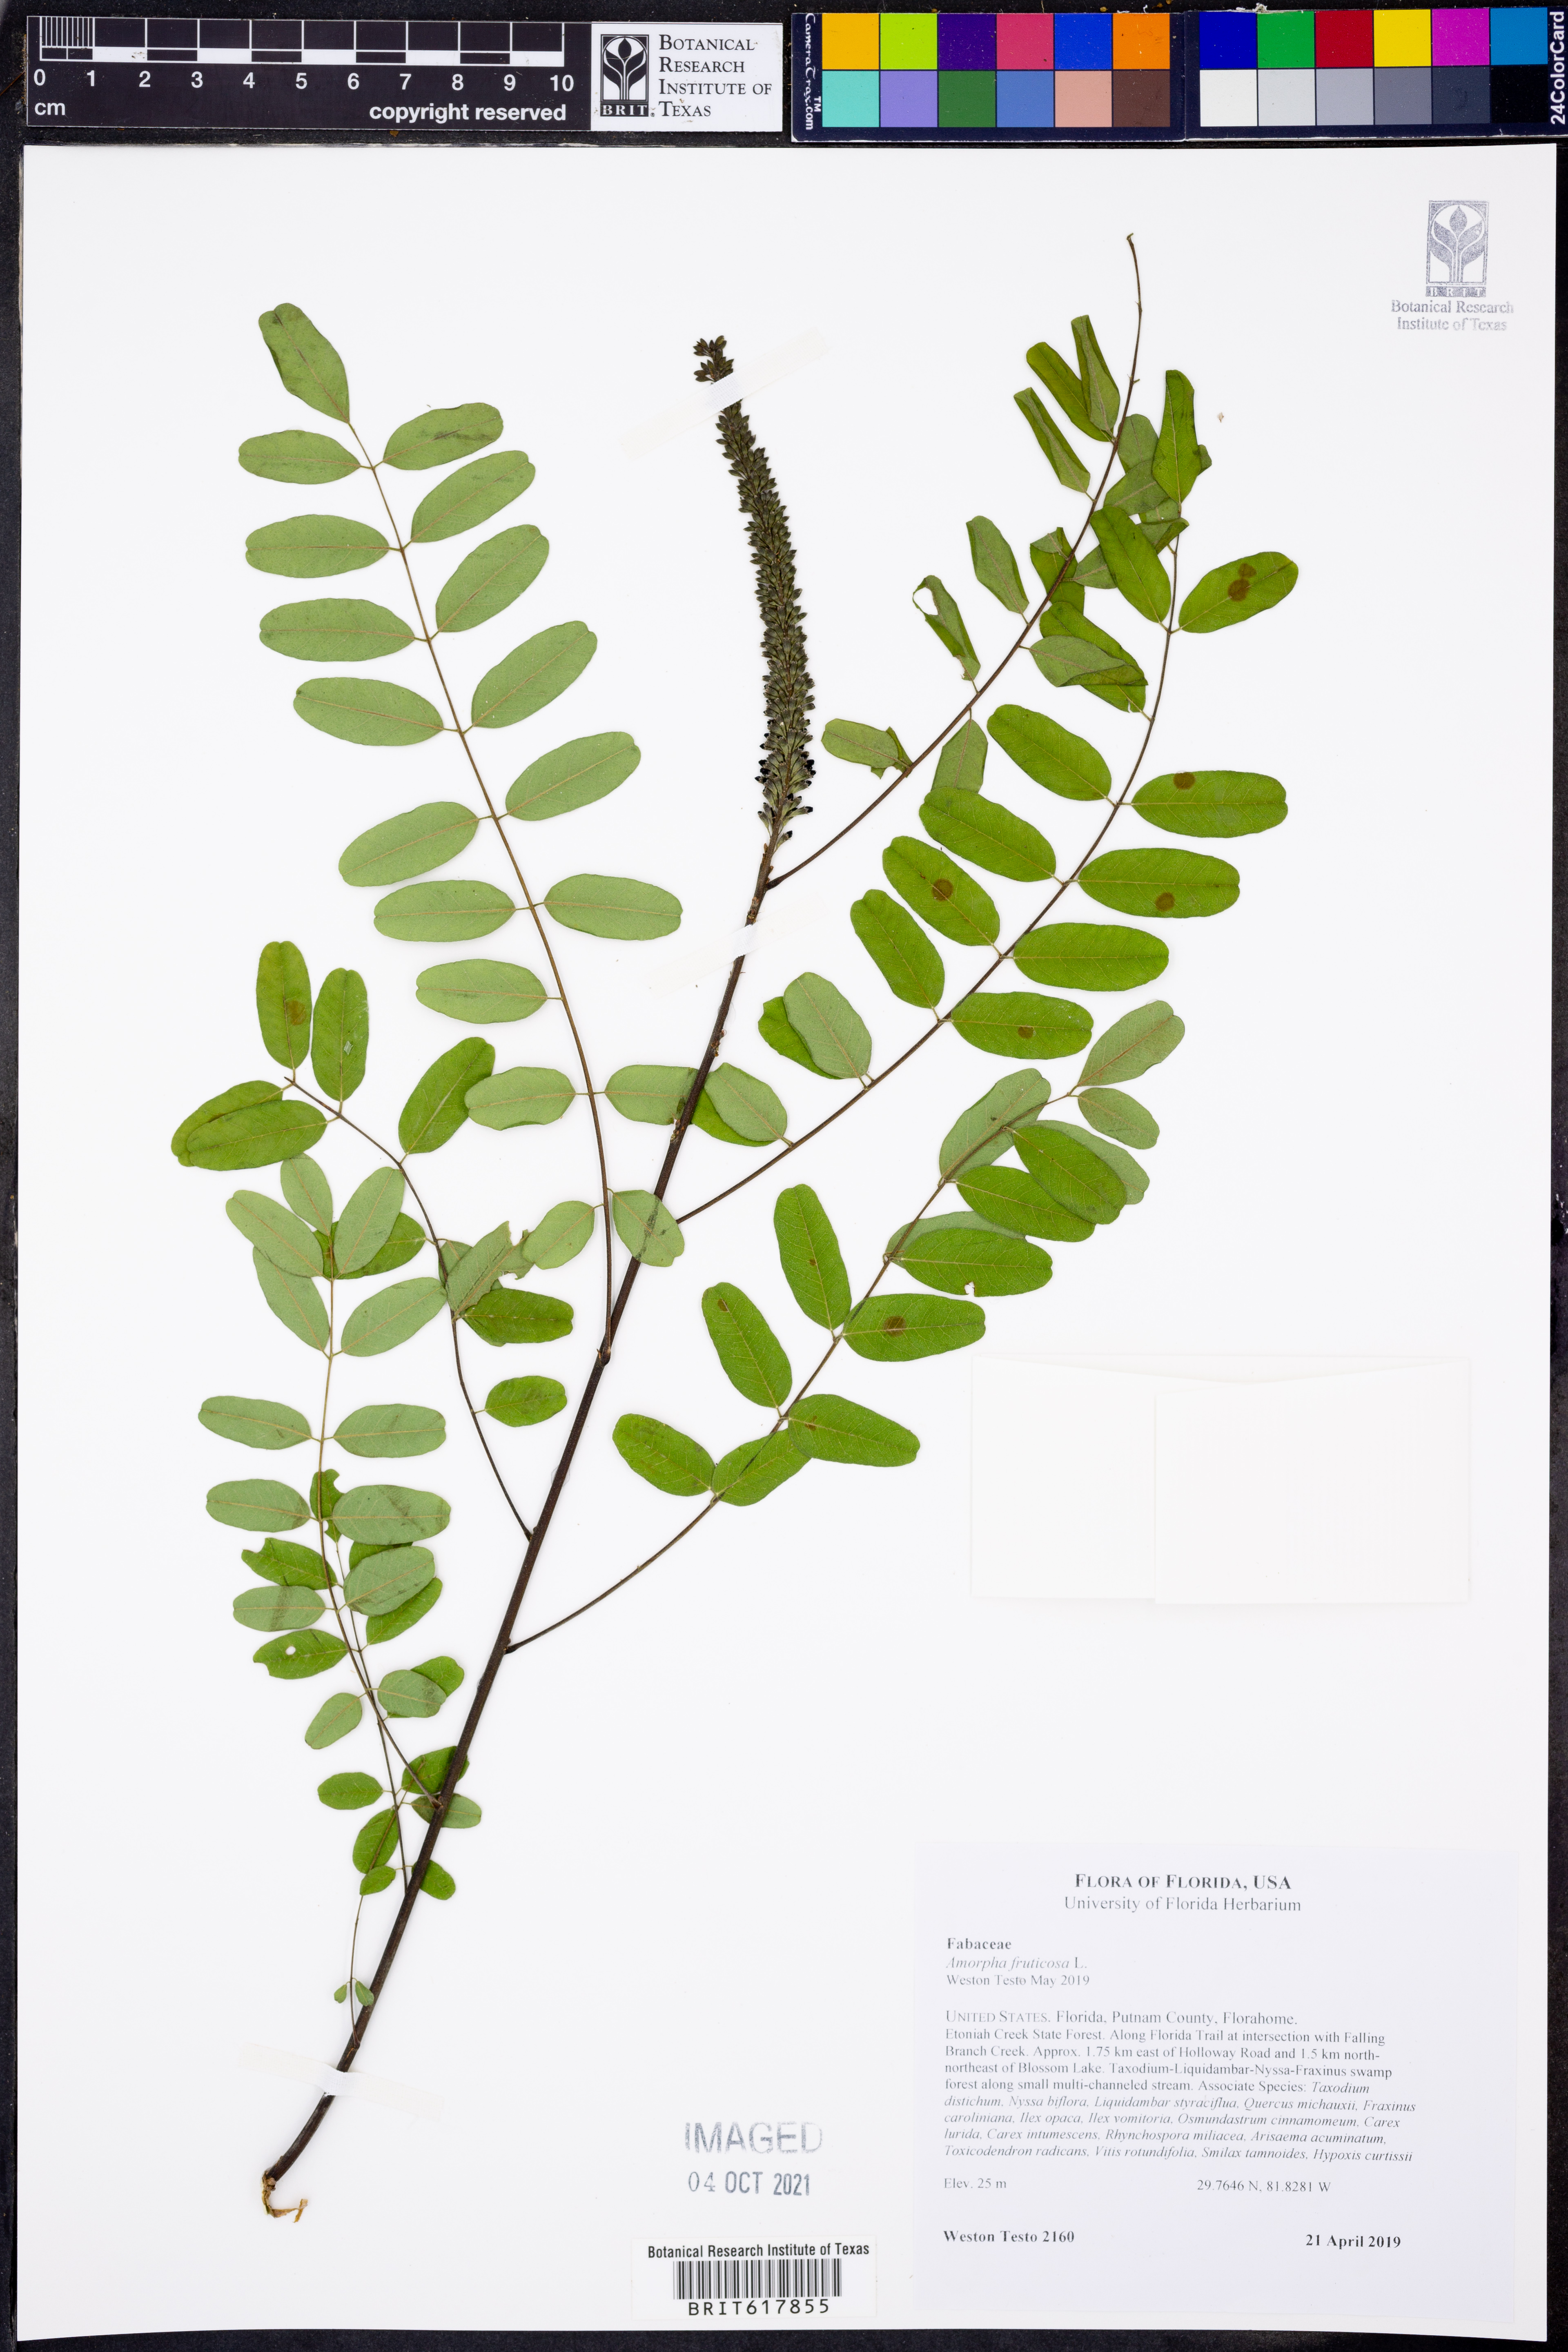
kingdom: Plantae
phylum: Tracheophyta
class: Magnoliopsida
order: Fabales
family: Fabaceae
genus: Amorpha
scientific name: Amorpha fruticosa
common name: False indigo
